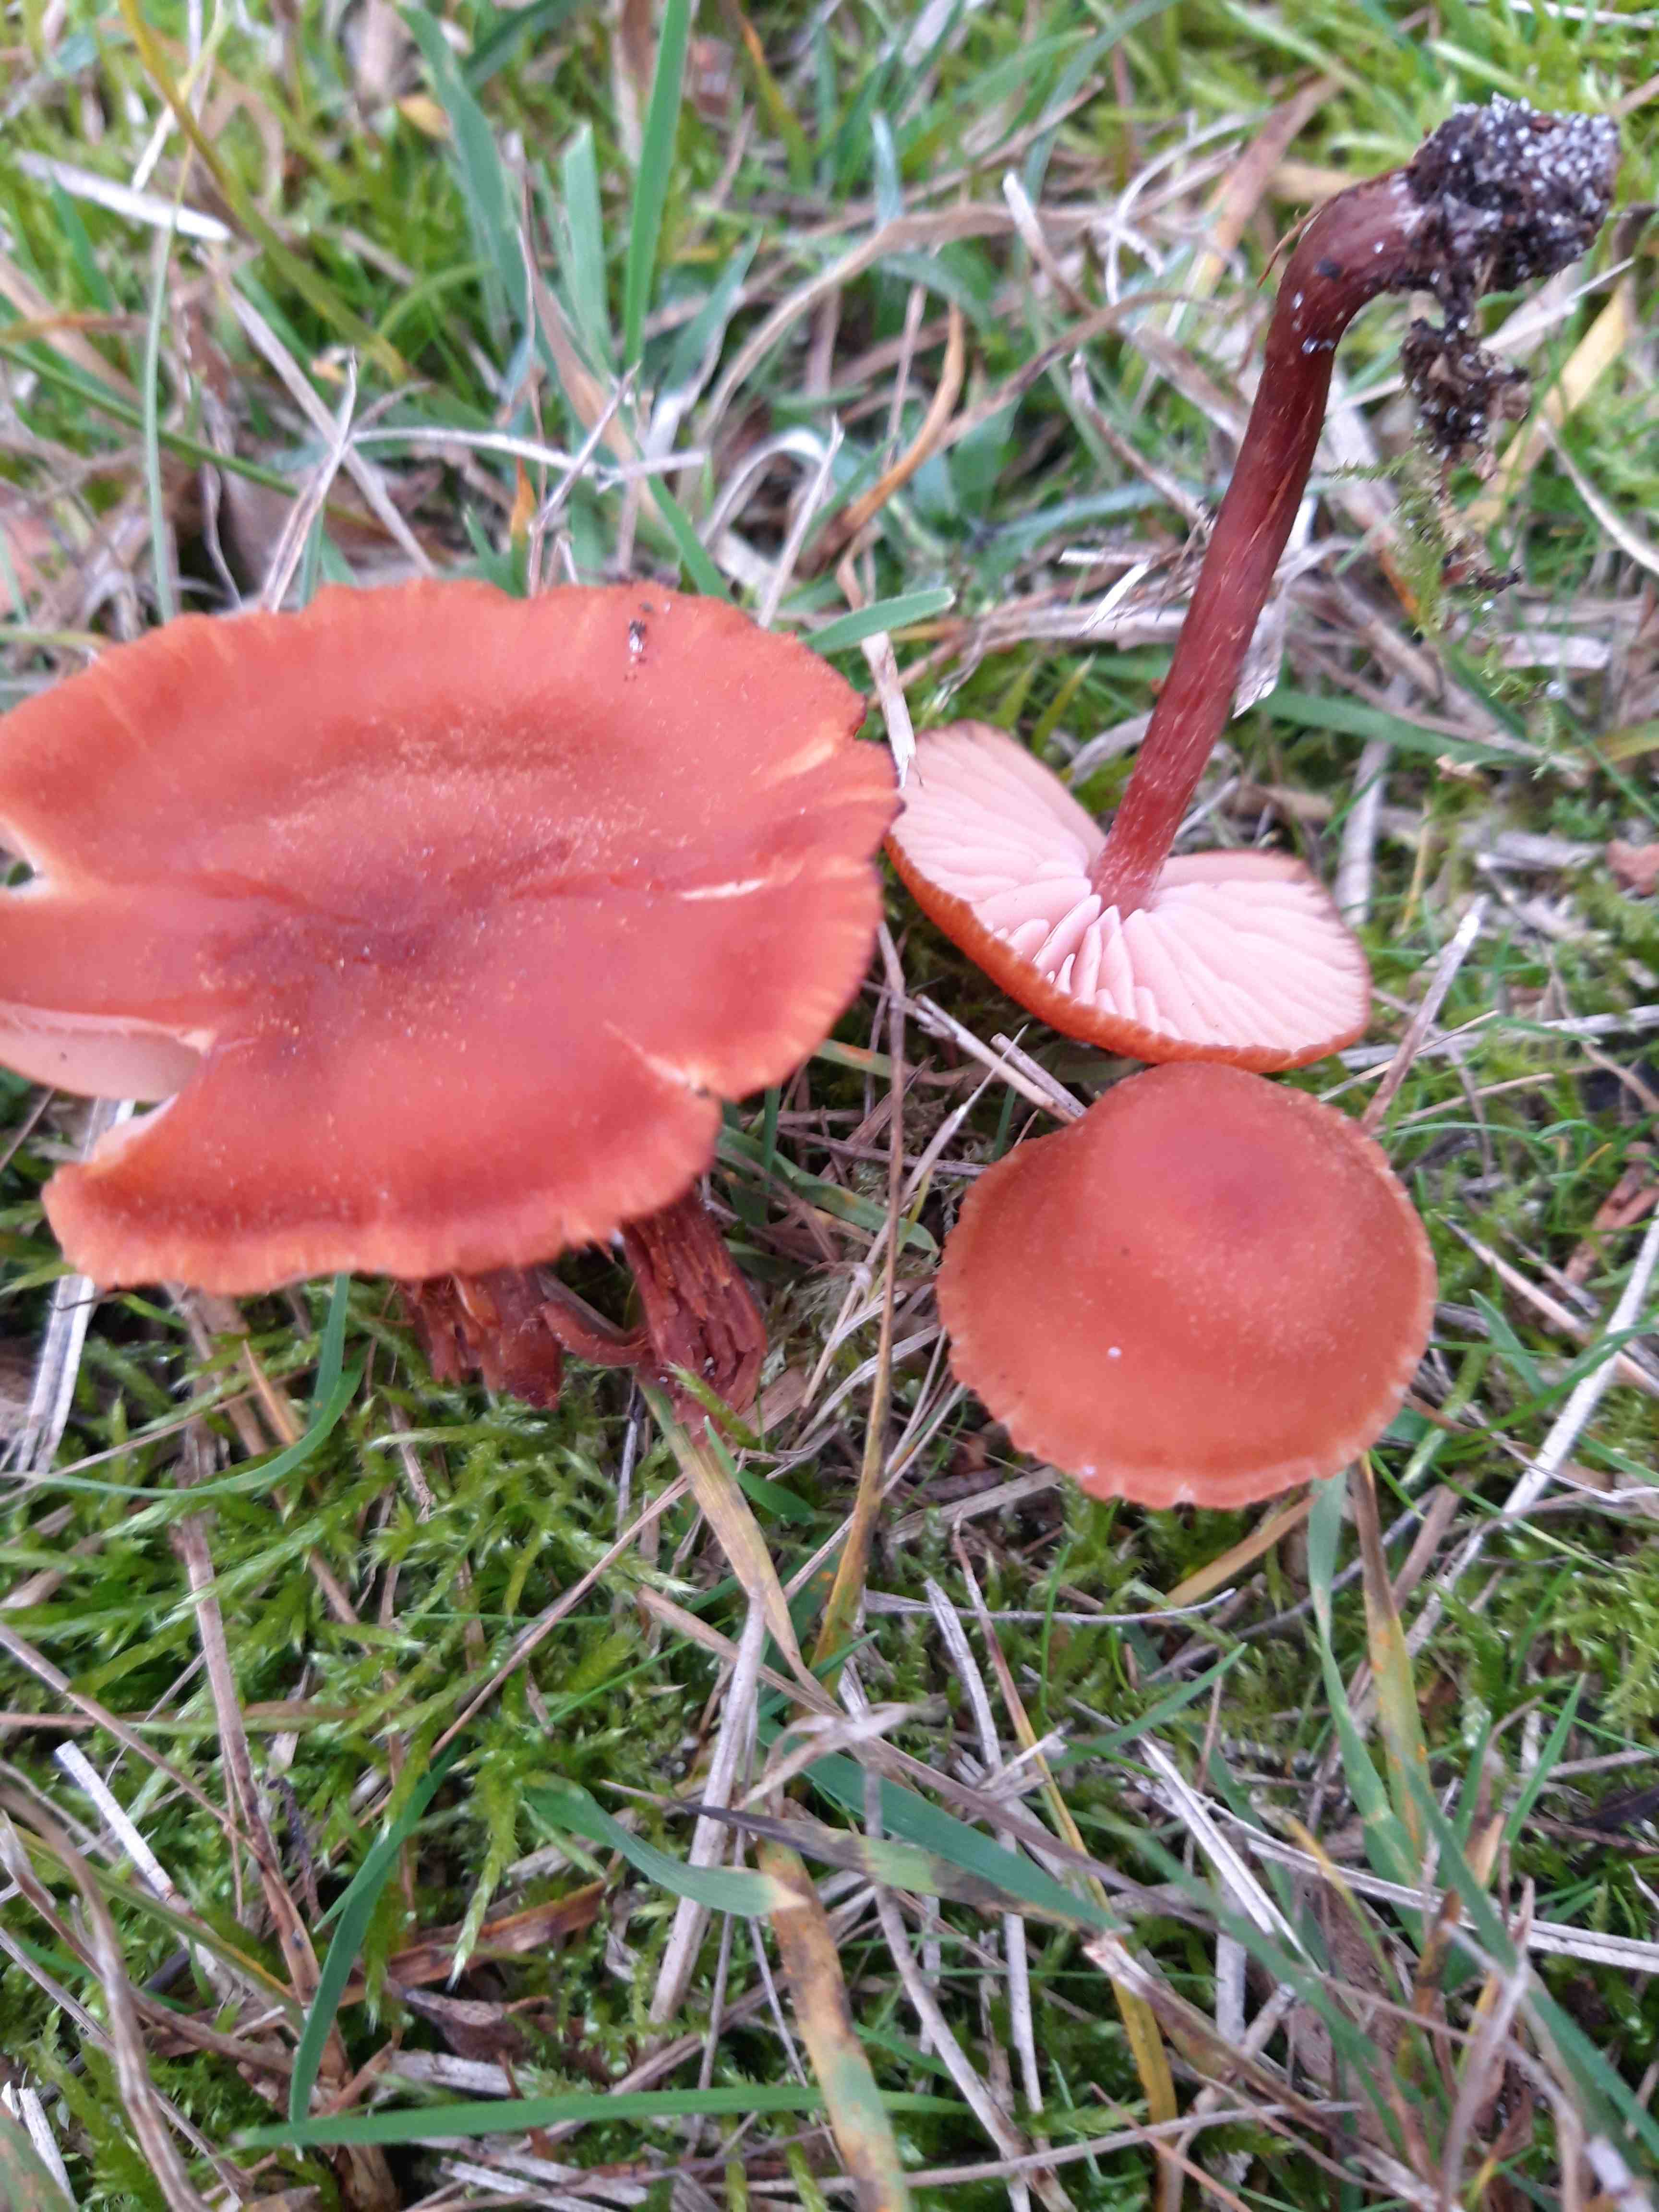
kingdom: Fungi
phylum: Basidiomycota
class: Agaricomycetes
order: Agaricales
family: Hydnangiaceae
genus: Laccaria
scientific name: Laccaria
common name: ametysthat
